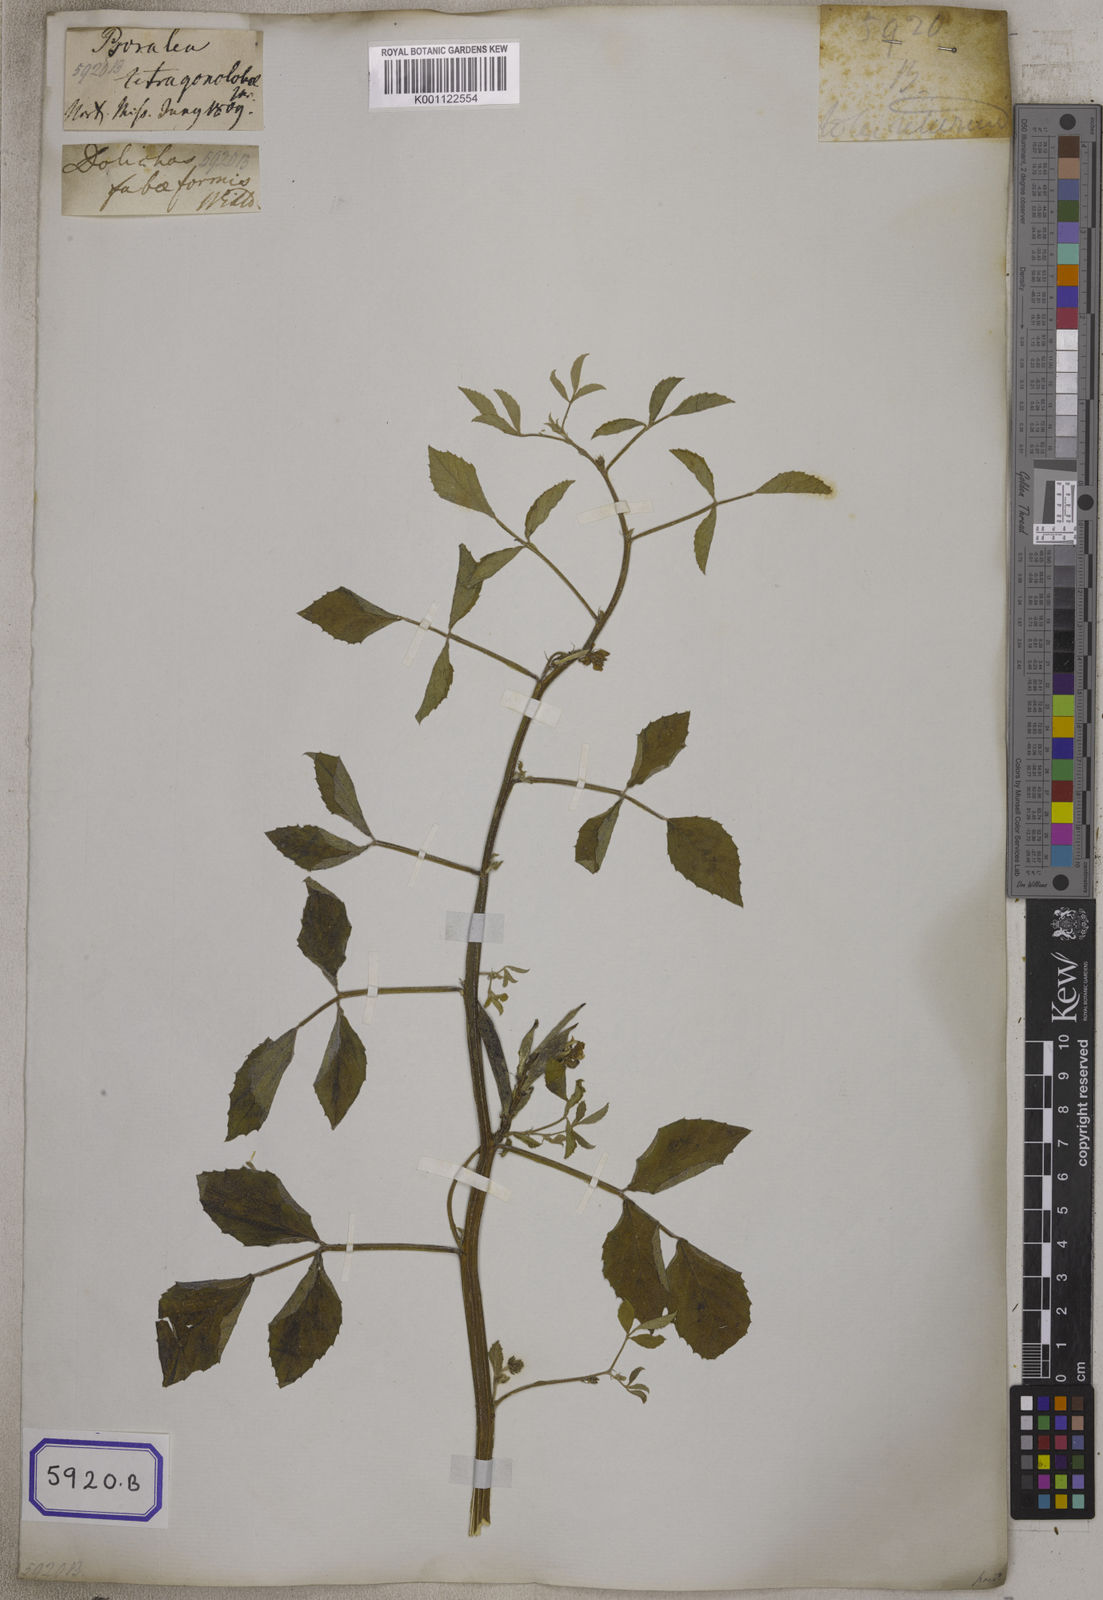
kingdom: Plantae
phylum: Tracheophyta
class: Magnoliopsida
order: Fabales
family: Fabaceae
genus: Cyamopsis
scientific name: Cyamopsis tetragonoloba
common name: Cluster-bean
